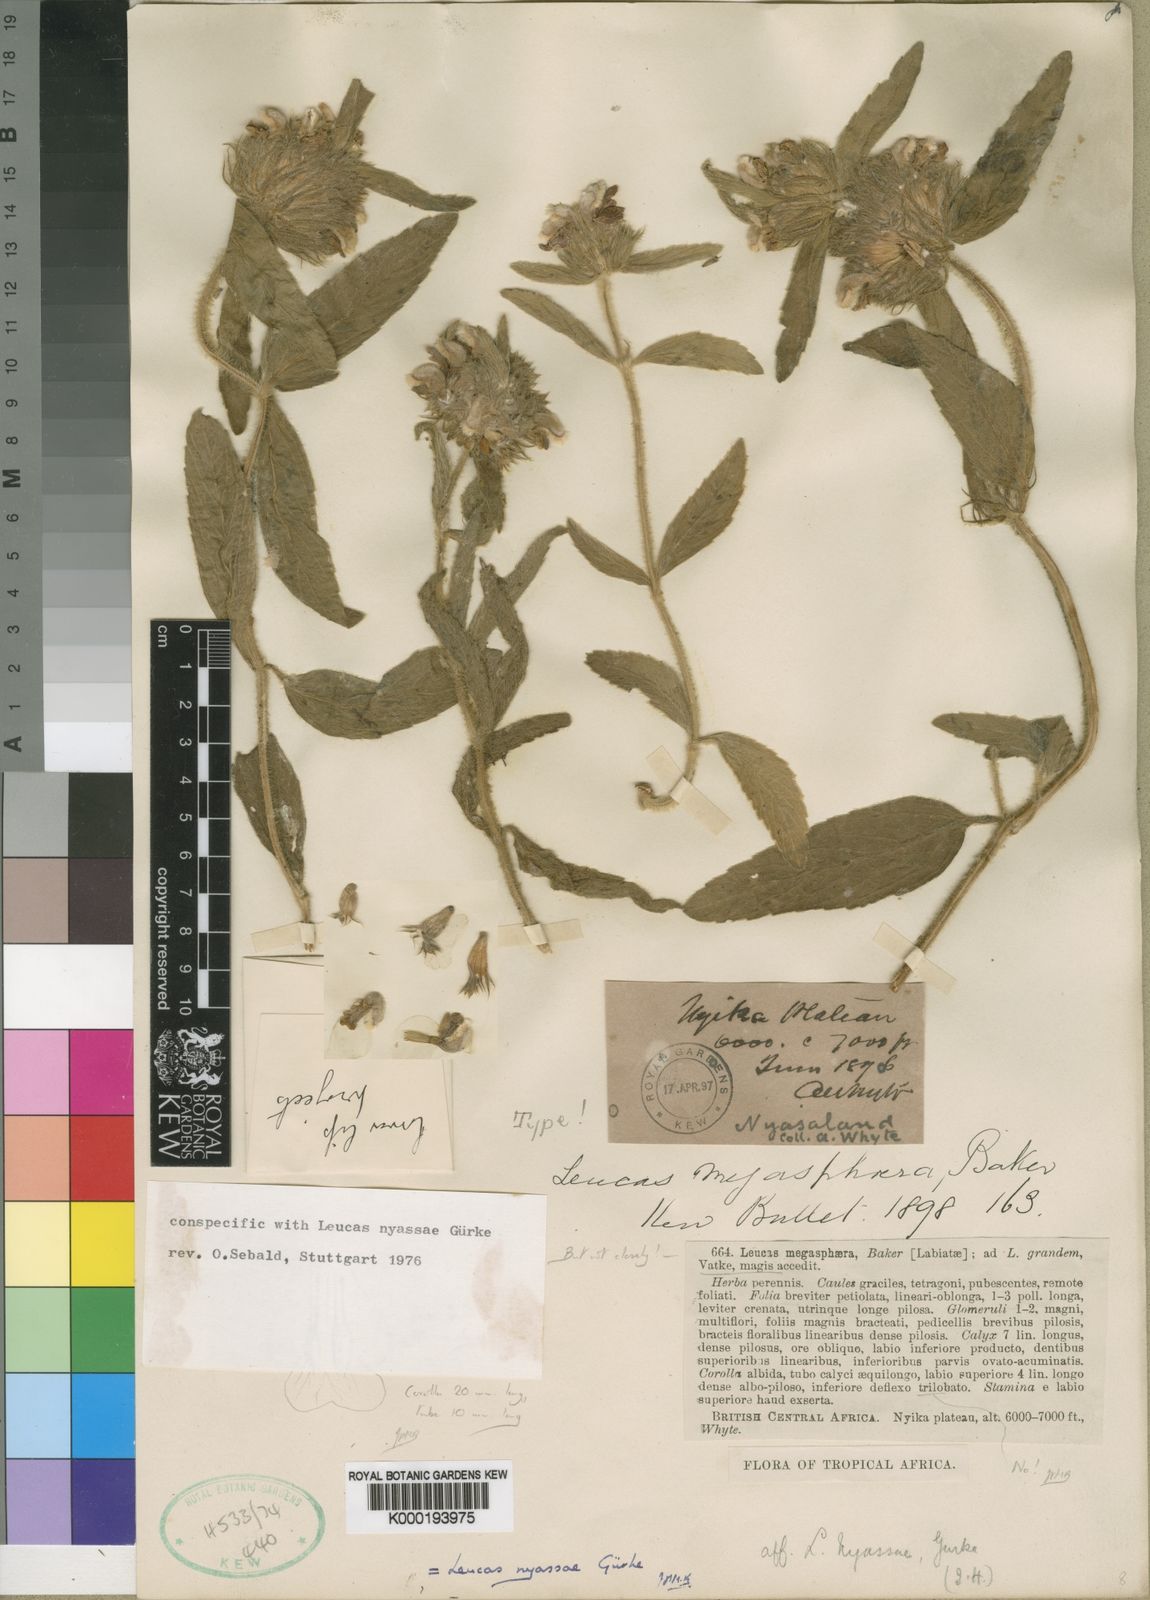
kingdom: Plantae
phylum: Tracheophyta
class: Magnoliopsida
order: Lamiales
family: Lamiaceae
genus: Leucas
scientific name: Leucas nyassae
